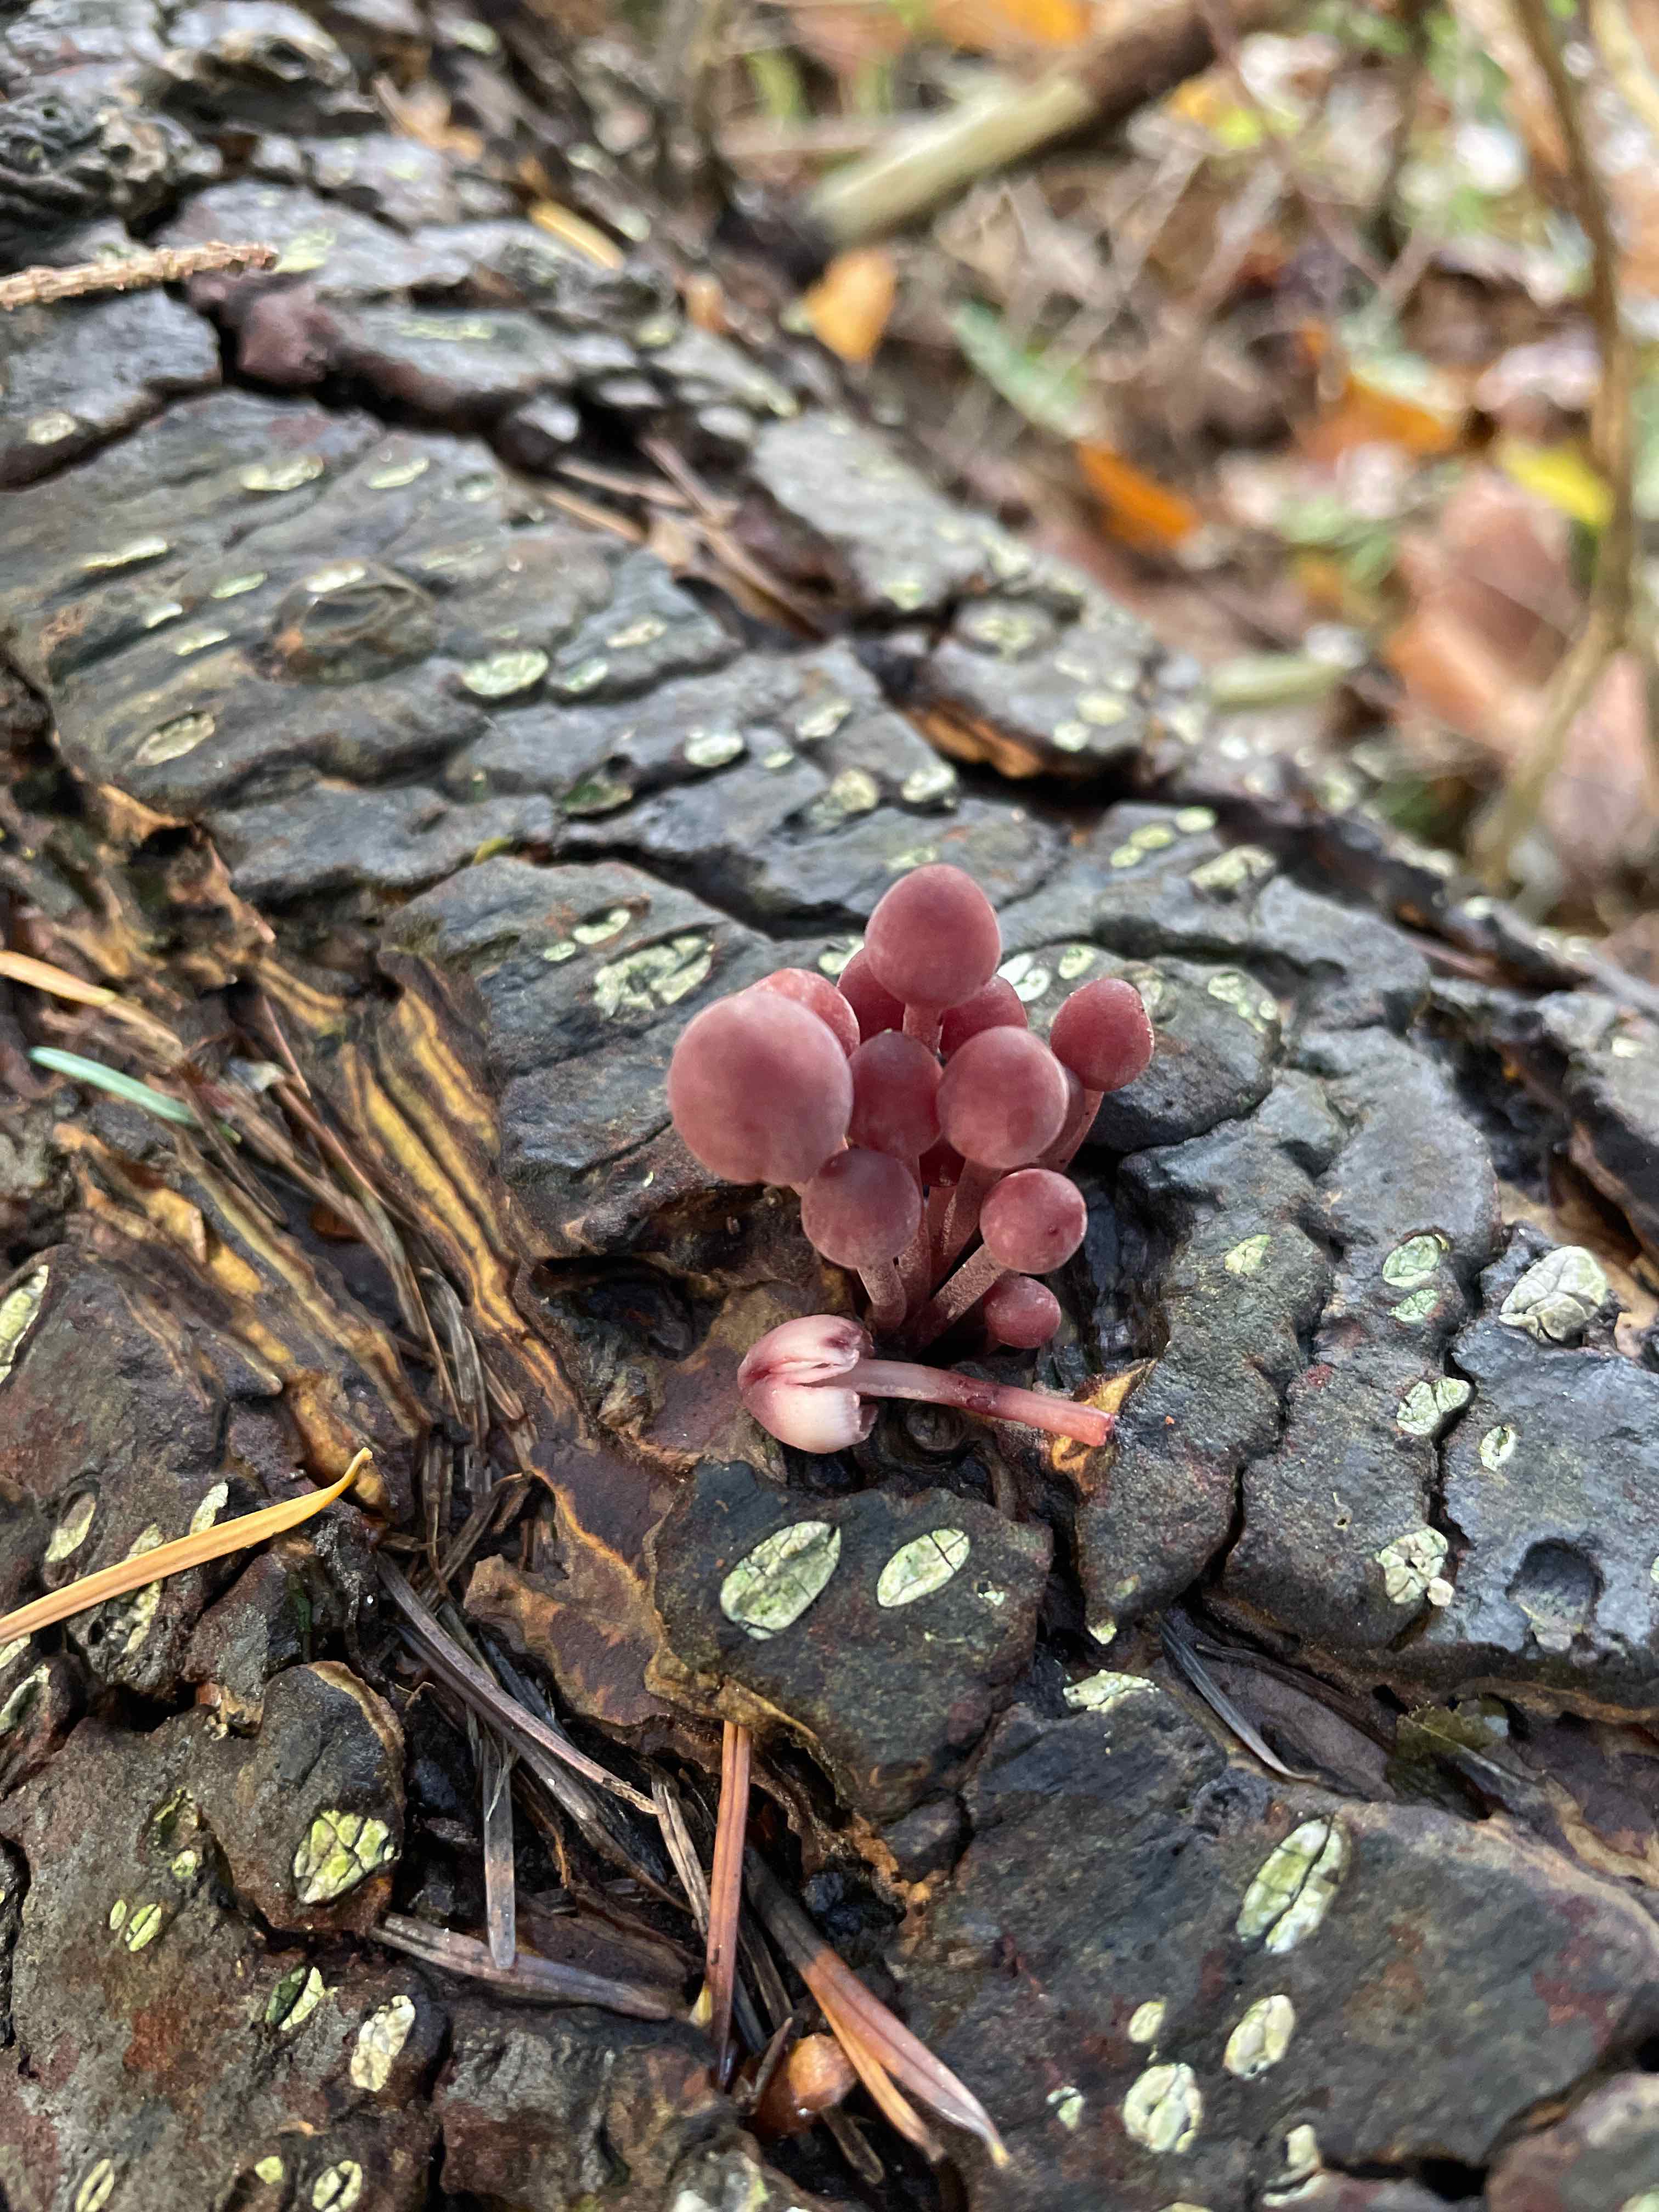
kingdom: Fungi
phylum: Basidiomycota
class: Agaricomycetes
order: Agaricales
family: Mycenaceae
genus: Mycena
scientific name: Mycena haematopus
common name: blødende huesvamp
